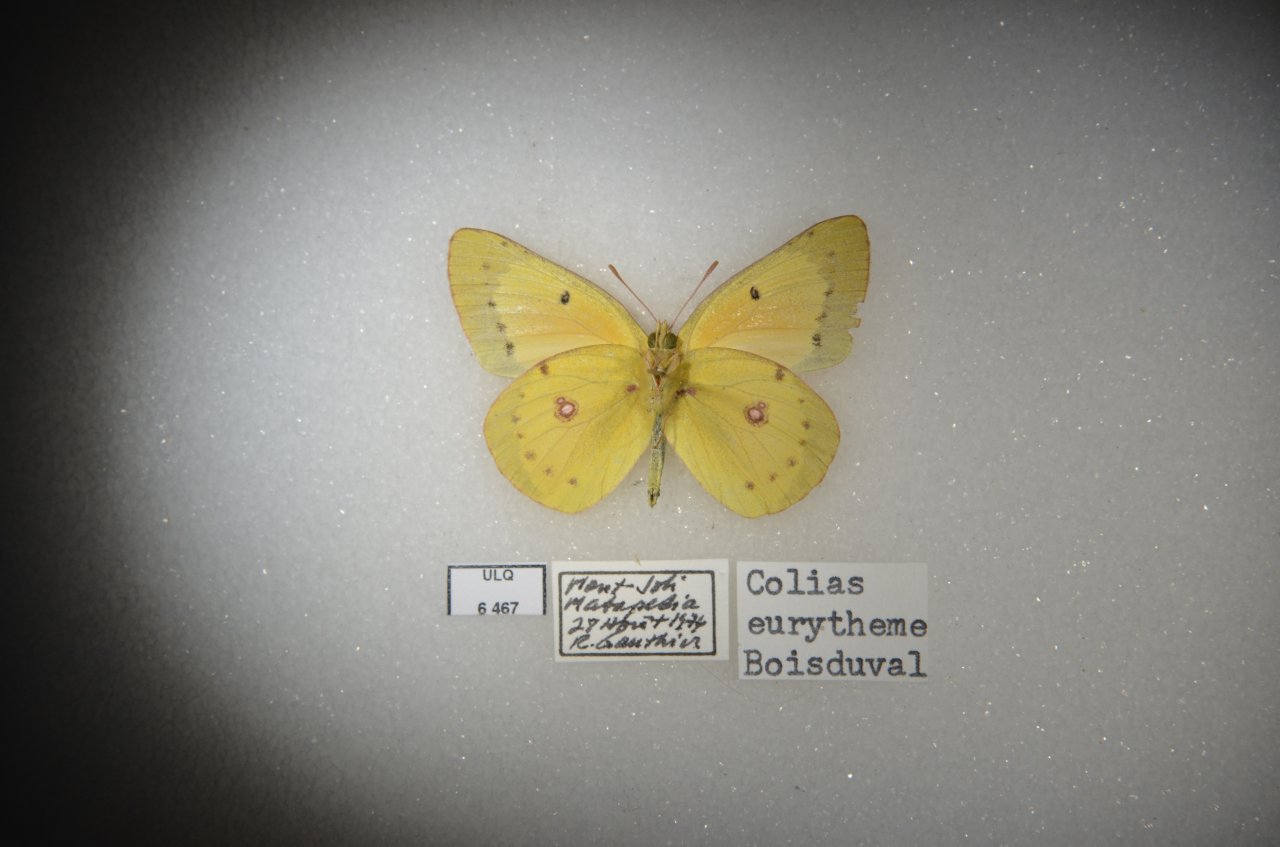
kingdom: Animalia
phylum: Arthropoda
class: Insecta
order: Lepidoptera
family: Pieridae
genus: Colias
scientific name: Colias eurytheme
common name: Orange Sulphur
